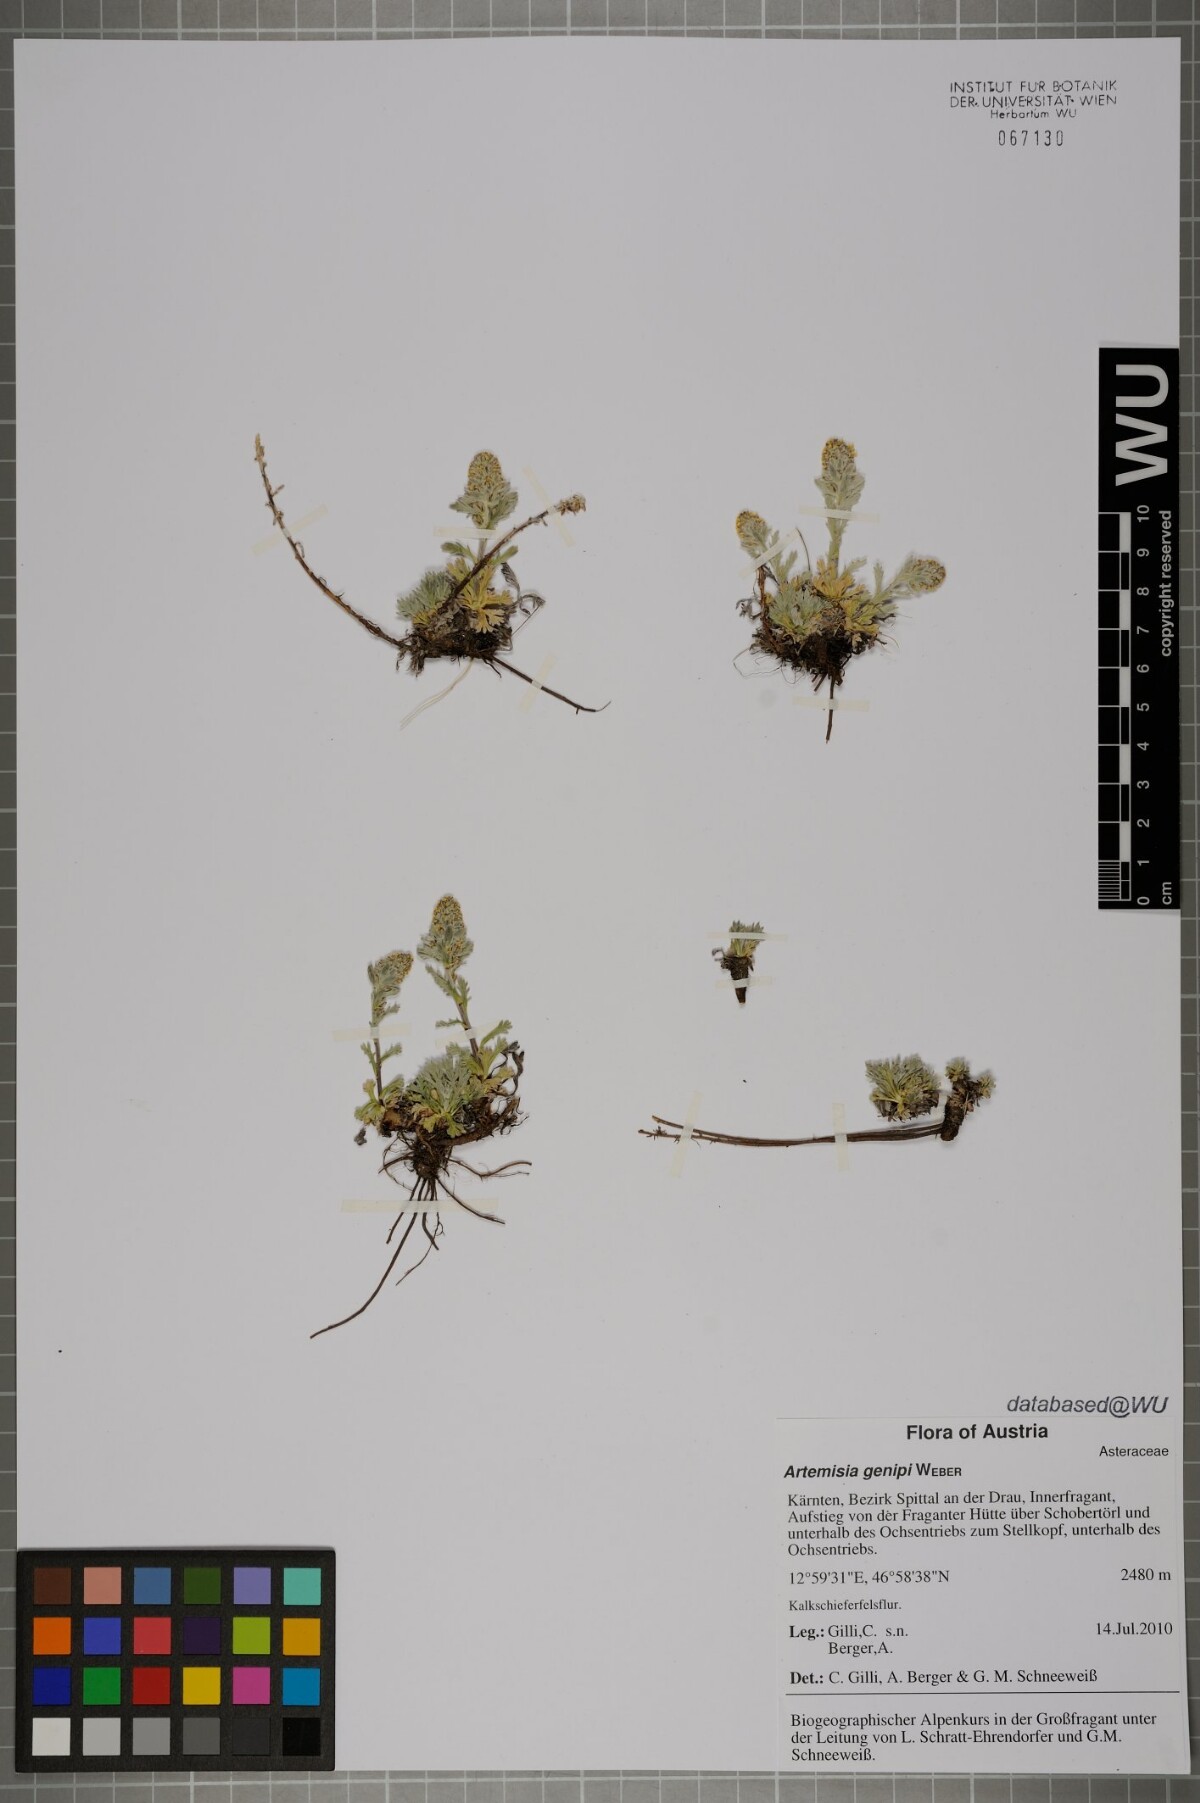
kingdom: Plantae
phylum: Tracheophyta
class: Magnoliopsida
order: Asterales
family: Asteraceae
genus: Artemisia
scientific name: Artemisia genipi
